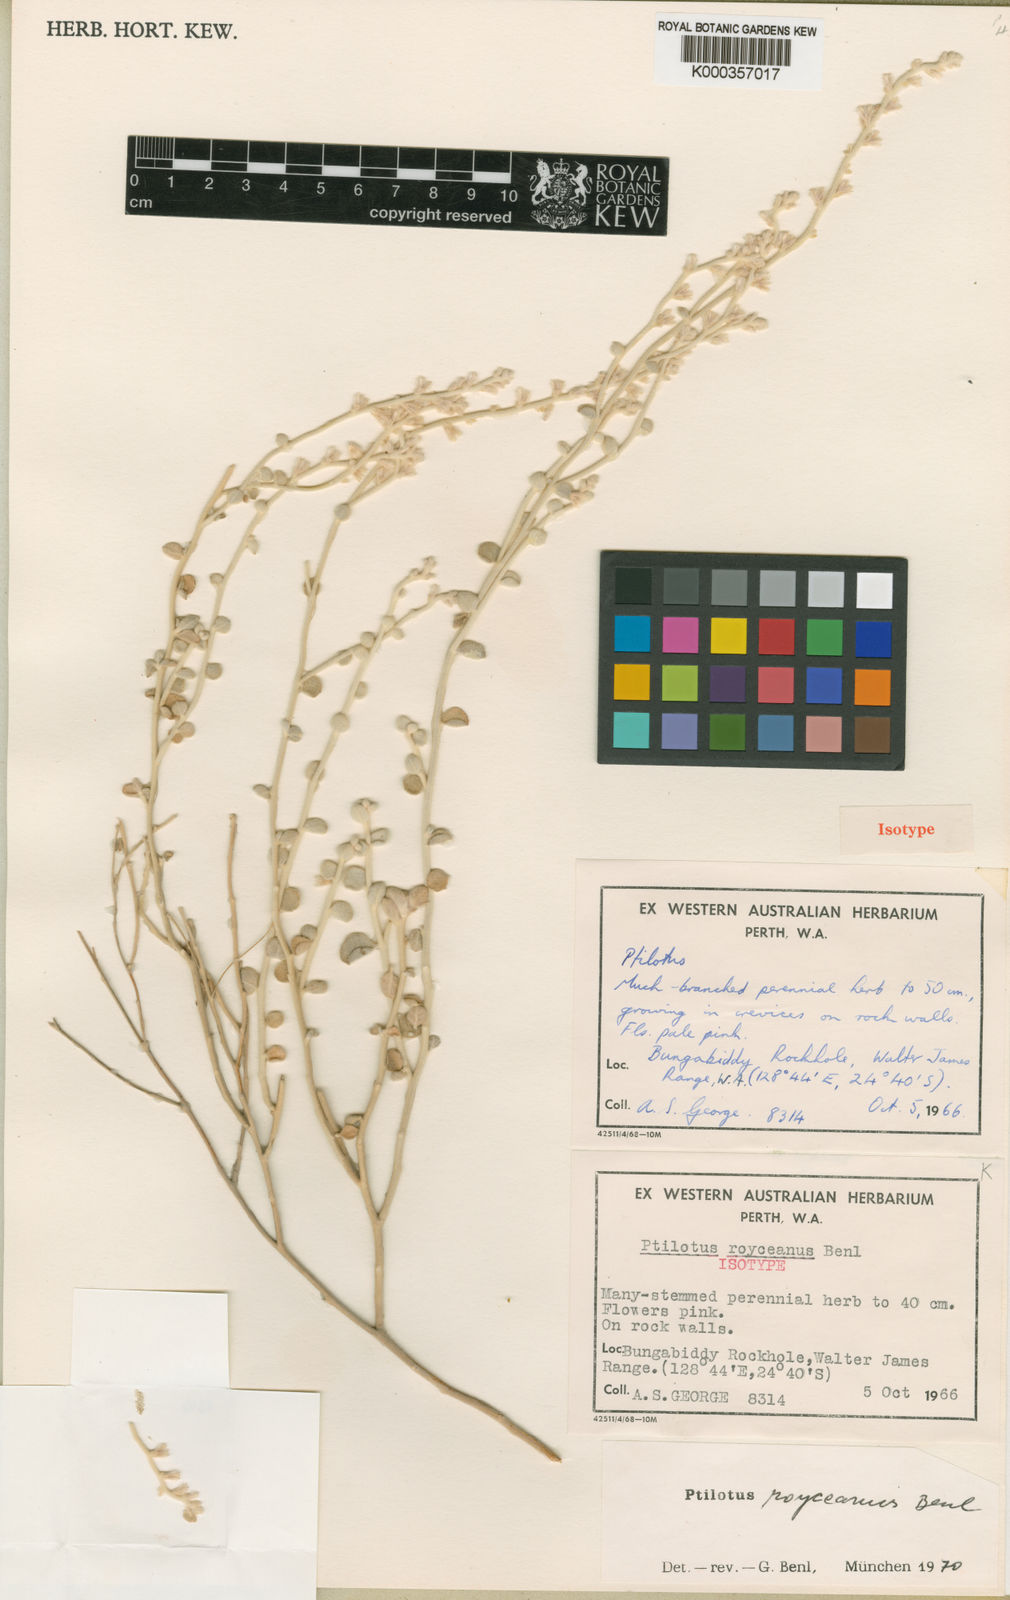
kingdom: Plantae
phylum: Tracheophyta
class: Magnoliopsida
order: Caryophyllales
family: Amaranthaceae
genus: Ptilotus
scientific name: Ptilotus royceanus
